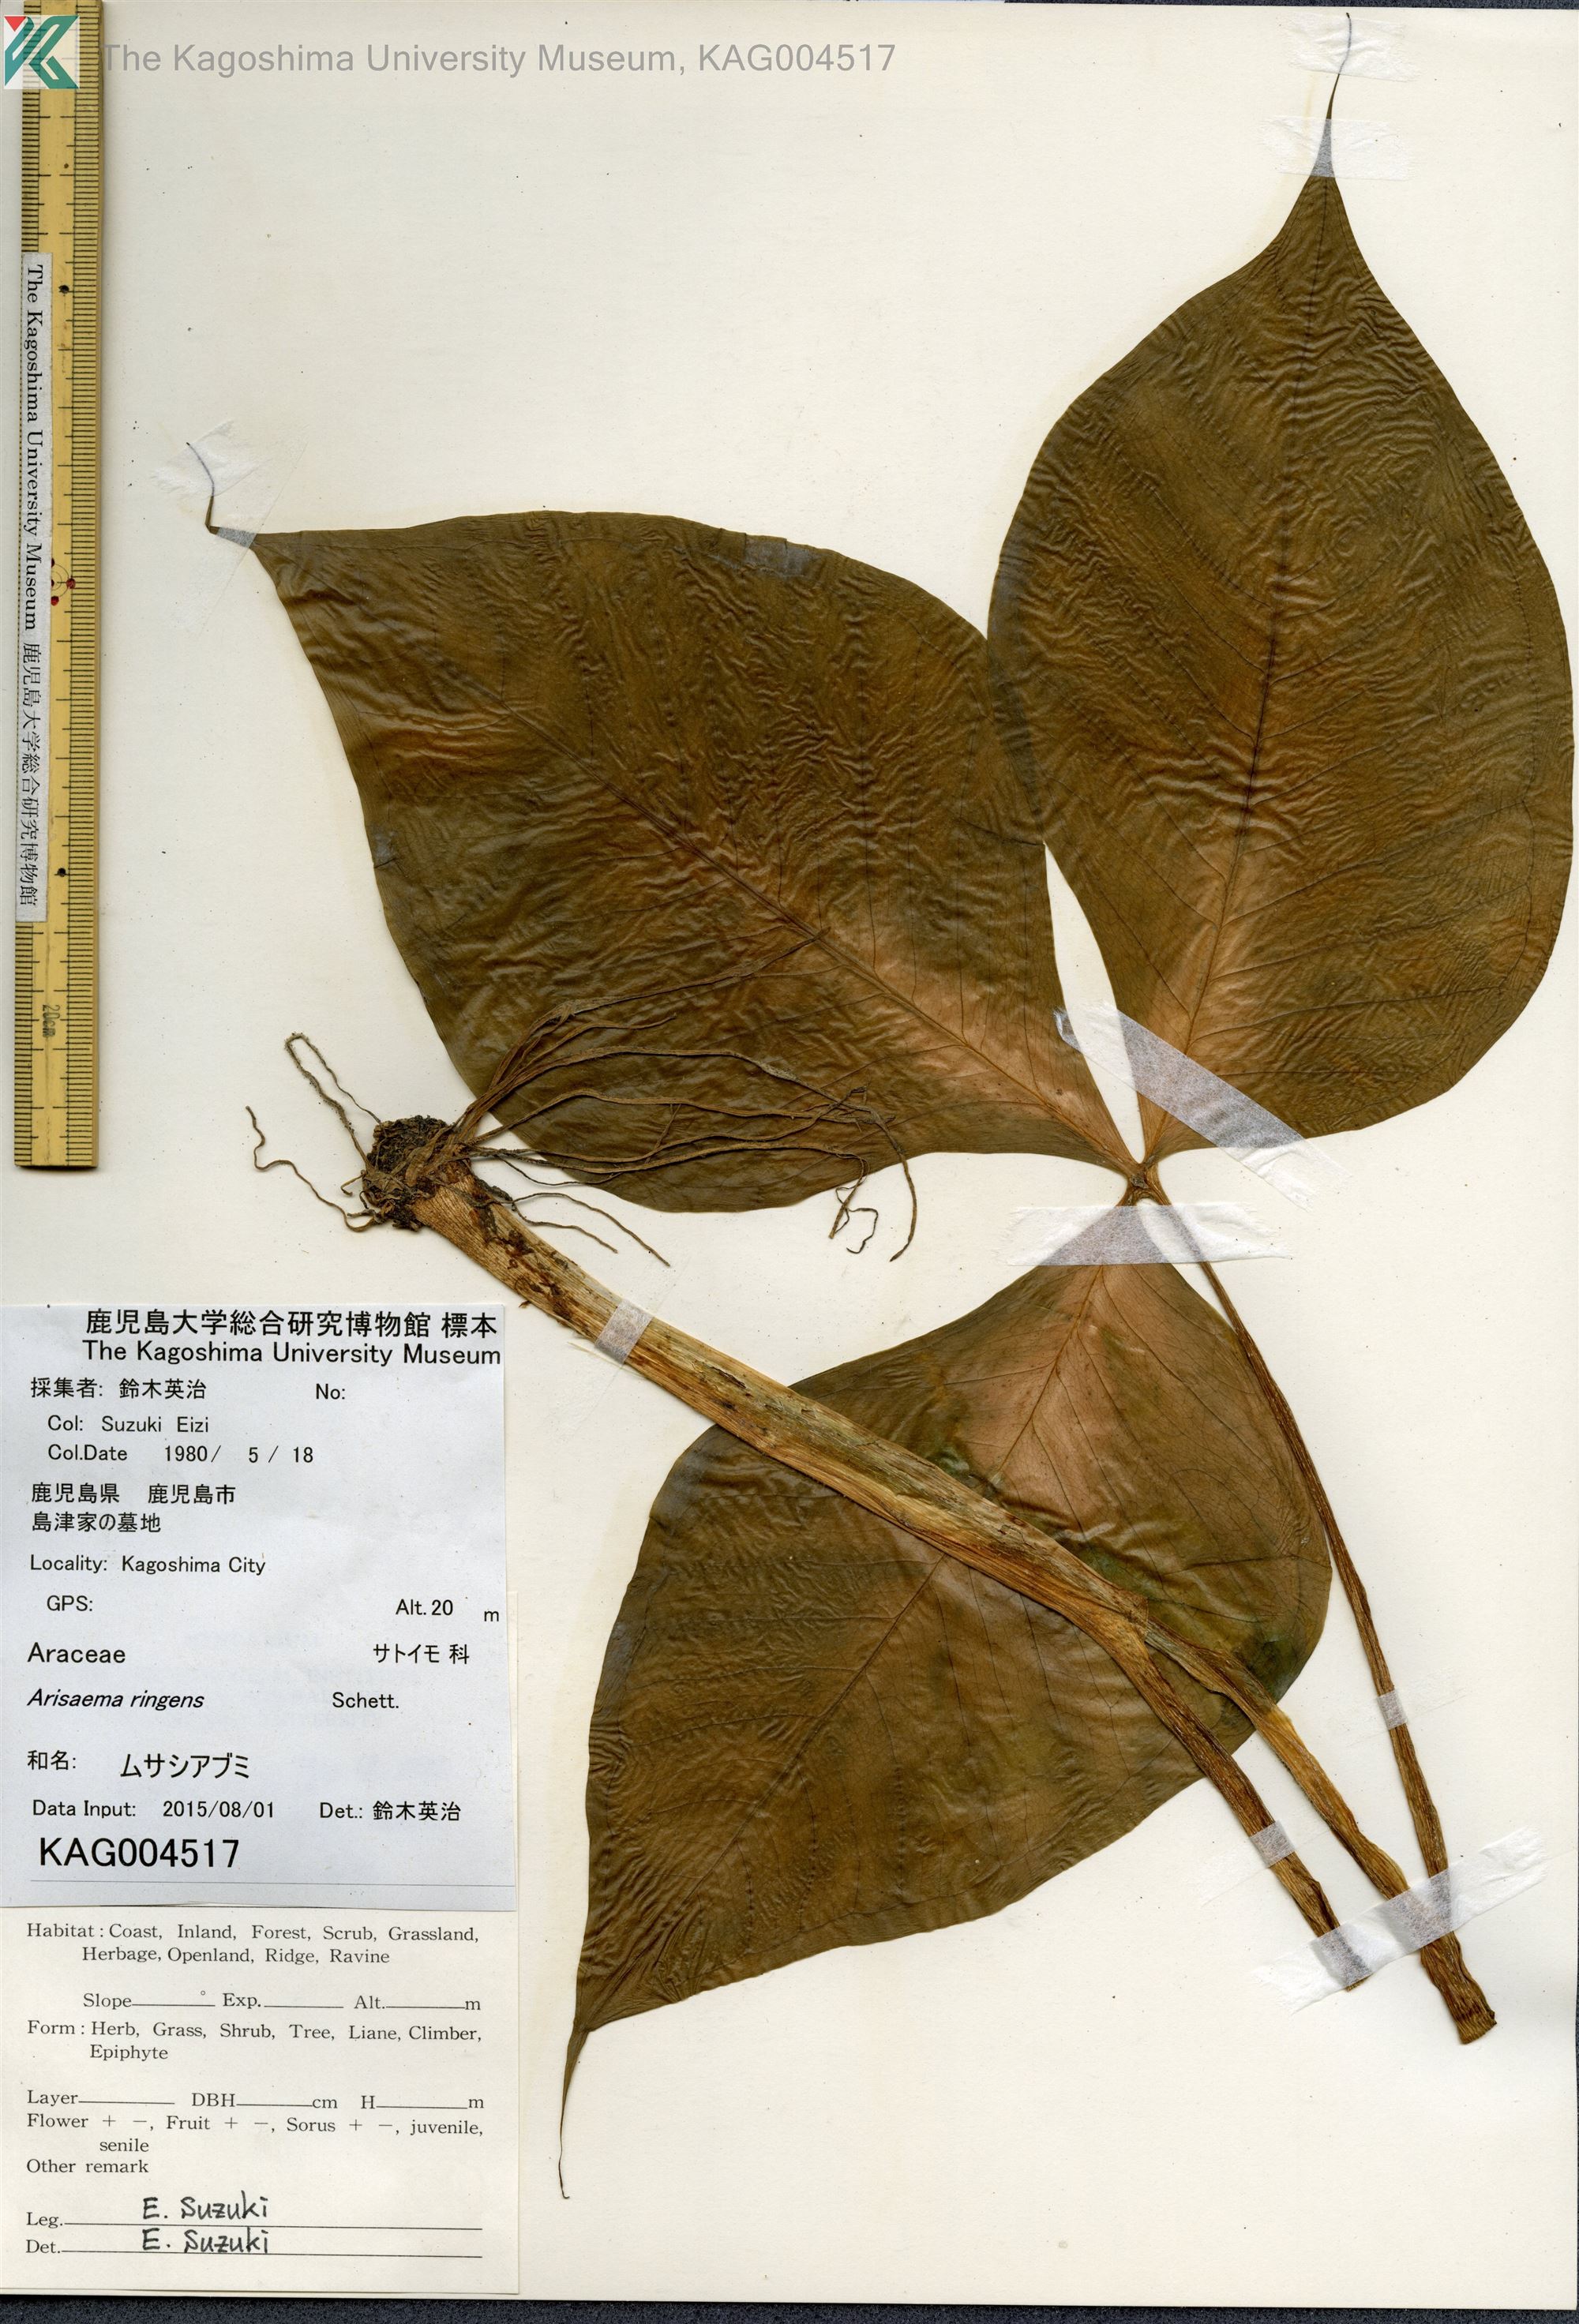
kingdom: Plantae
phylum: Tracheophyta
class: Liliopsida
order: Alismatales
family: Araceae
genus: Arisaema
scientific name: Arisaema ringens
